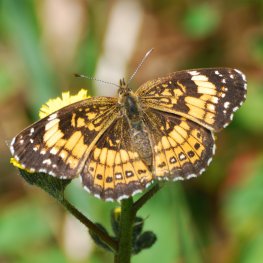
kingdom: Animalia
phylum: Arthropoda
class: Insecta
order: Lepidoptera
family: Nymphalidae
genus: Chlosyne
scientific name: Chlosyne nycteis
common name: Silvery Checkerspot
